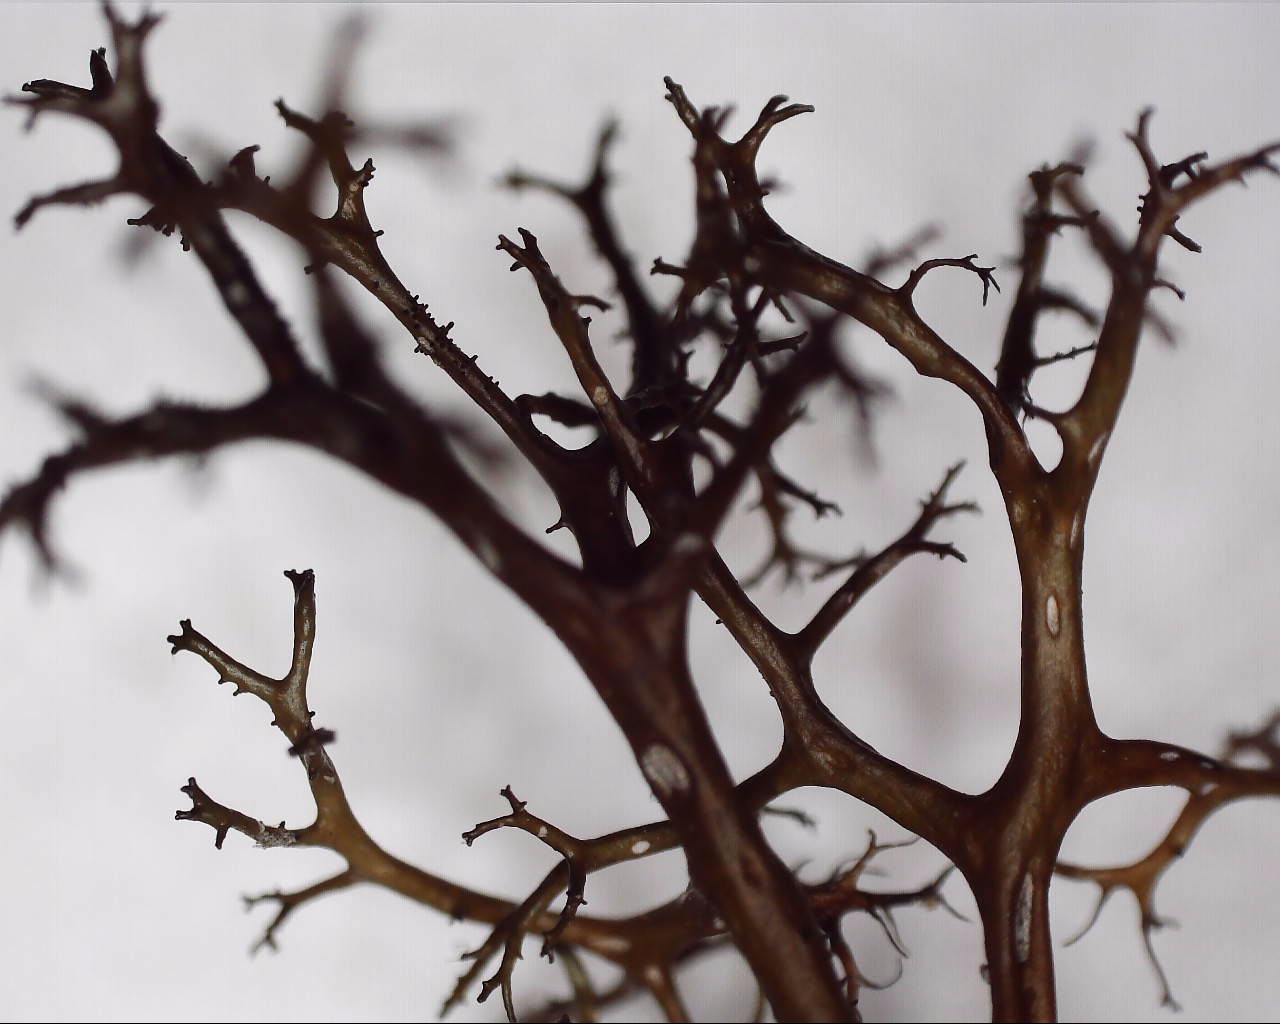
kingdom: Fungi
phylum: Ascomycota
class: Lecanoromycetes
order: Lecanorales
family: Parmeliaceae
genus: Cetraria
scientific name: Cetraria aculeata
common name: grubet tjørnelav
